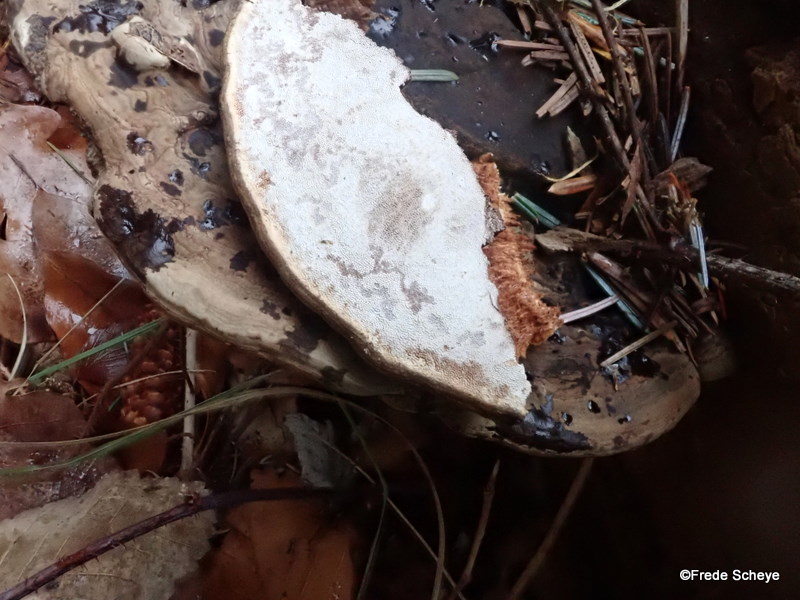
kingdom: Fungi
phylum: Basidiomycota
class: Agaricomycetes
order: Polyporales
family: Polyporaceae
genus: Ganoderma
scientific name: Ganoderma applanatum
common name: flad lakporesvamp
